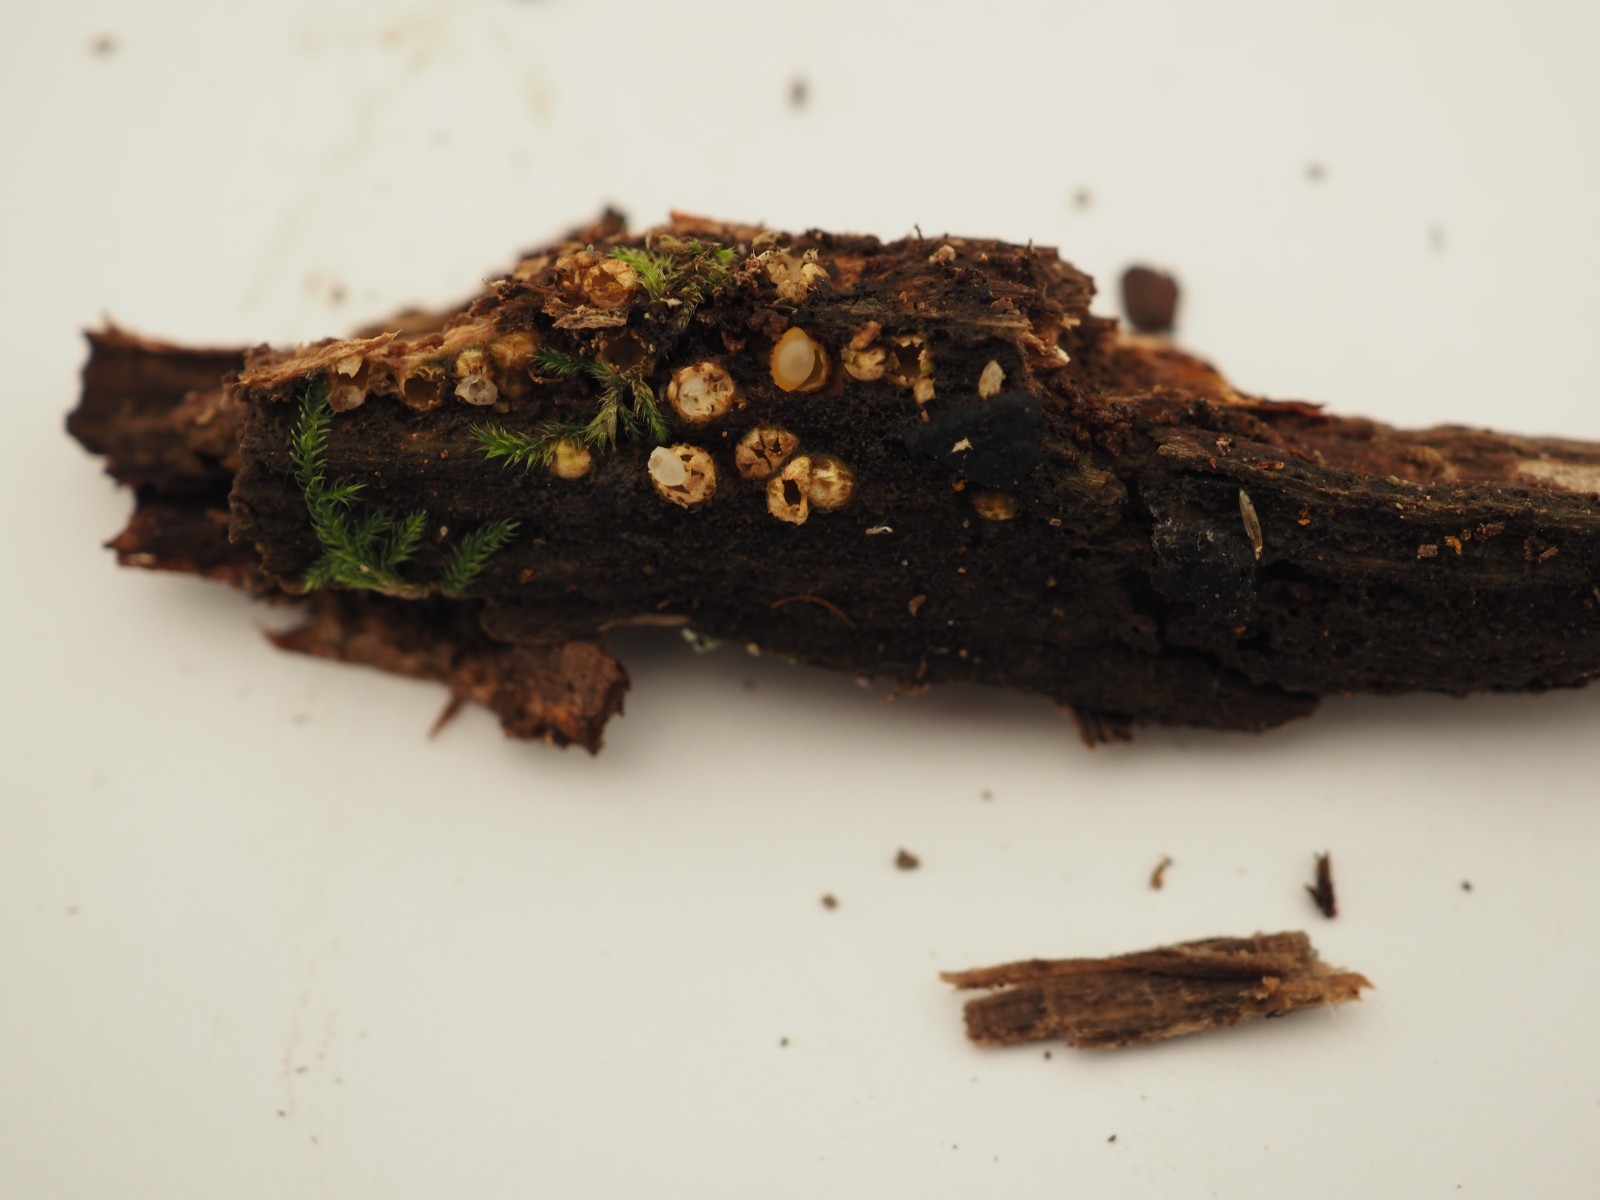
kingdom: Fungi
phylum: Basidiomycota
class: Agaricomycetes
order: Geastrales
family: Geastraceae
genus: Sphaerobolus
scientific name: Sphaerobolus stellatus
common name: bombekaster
